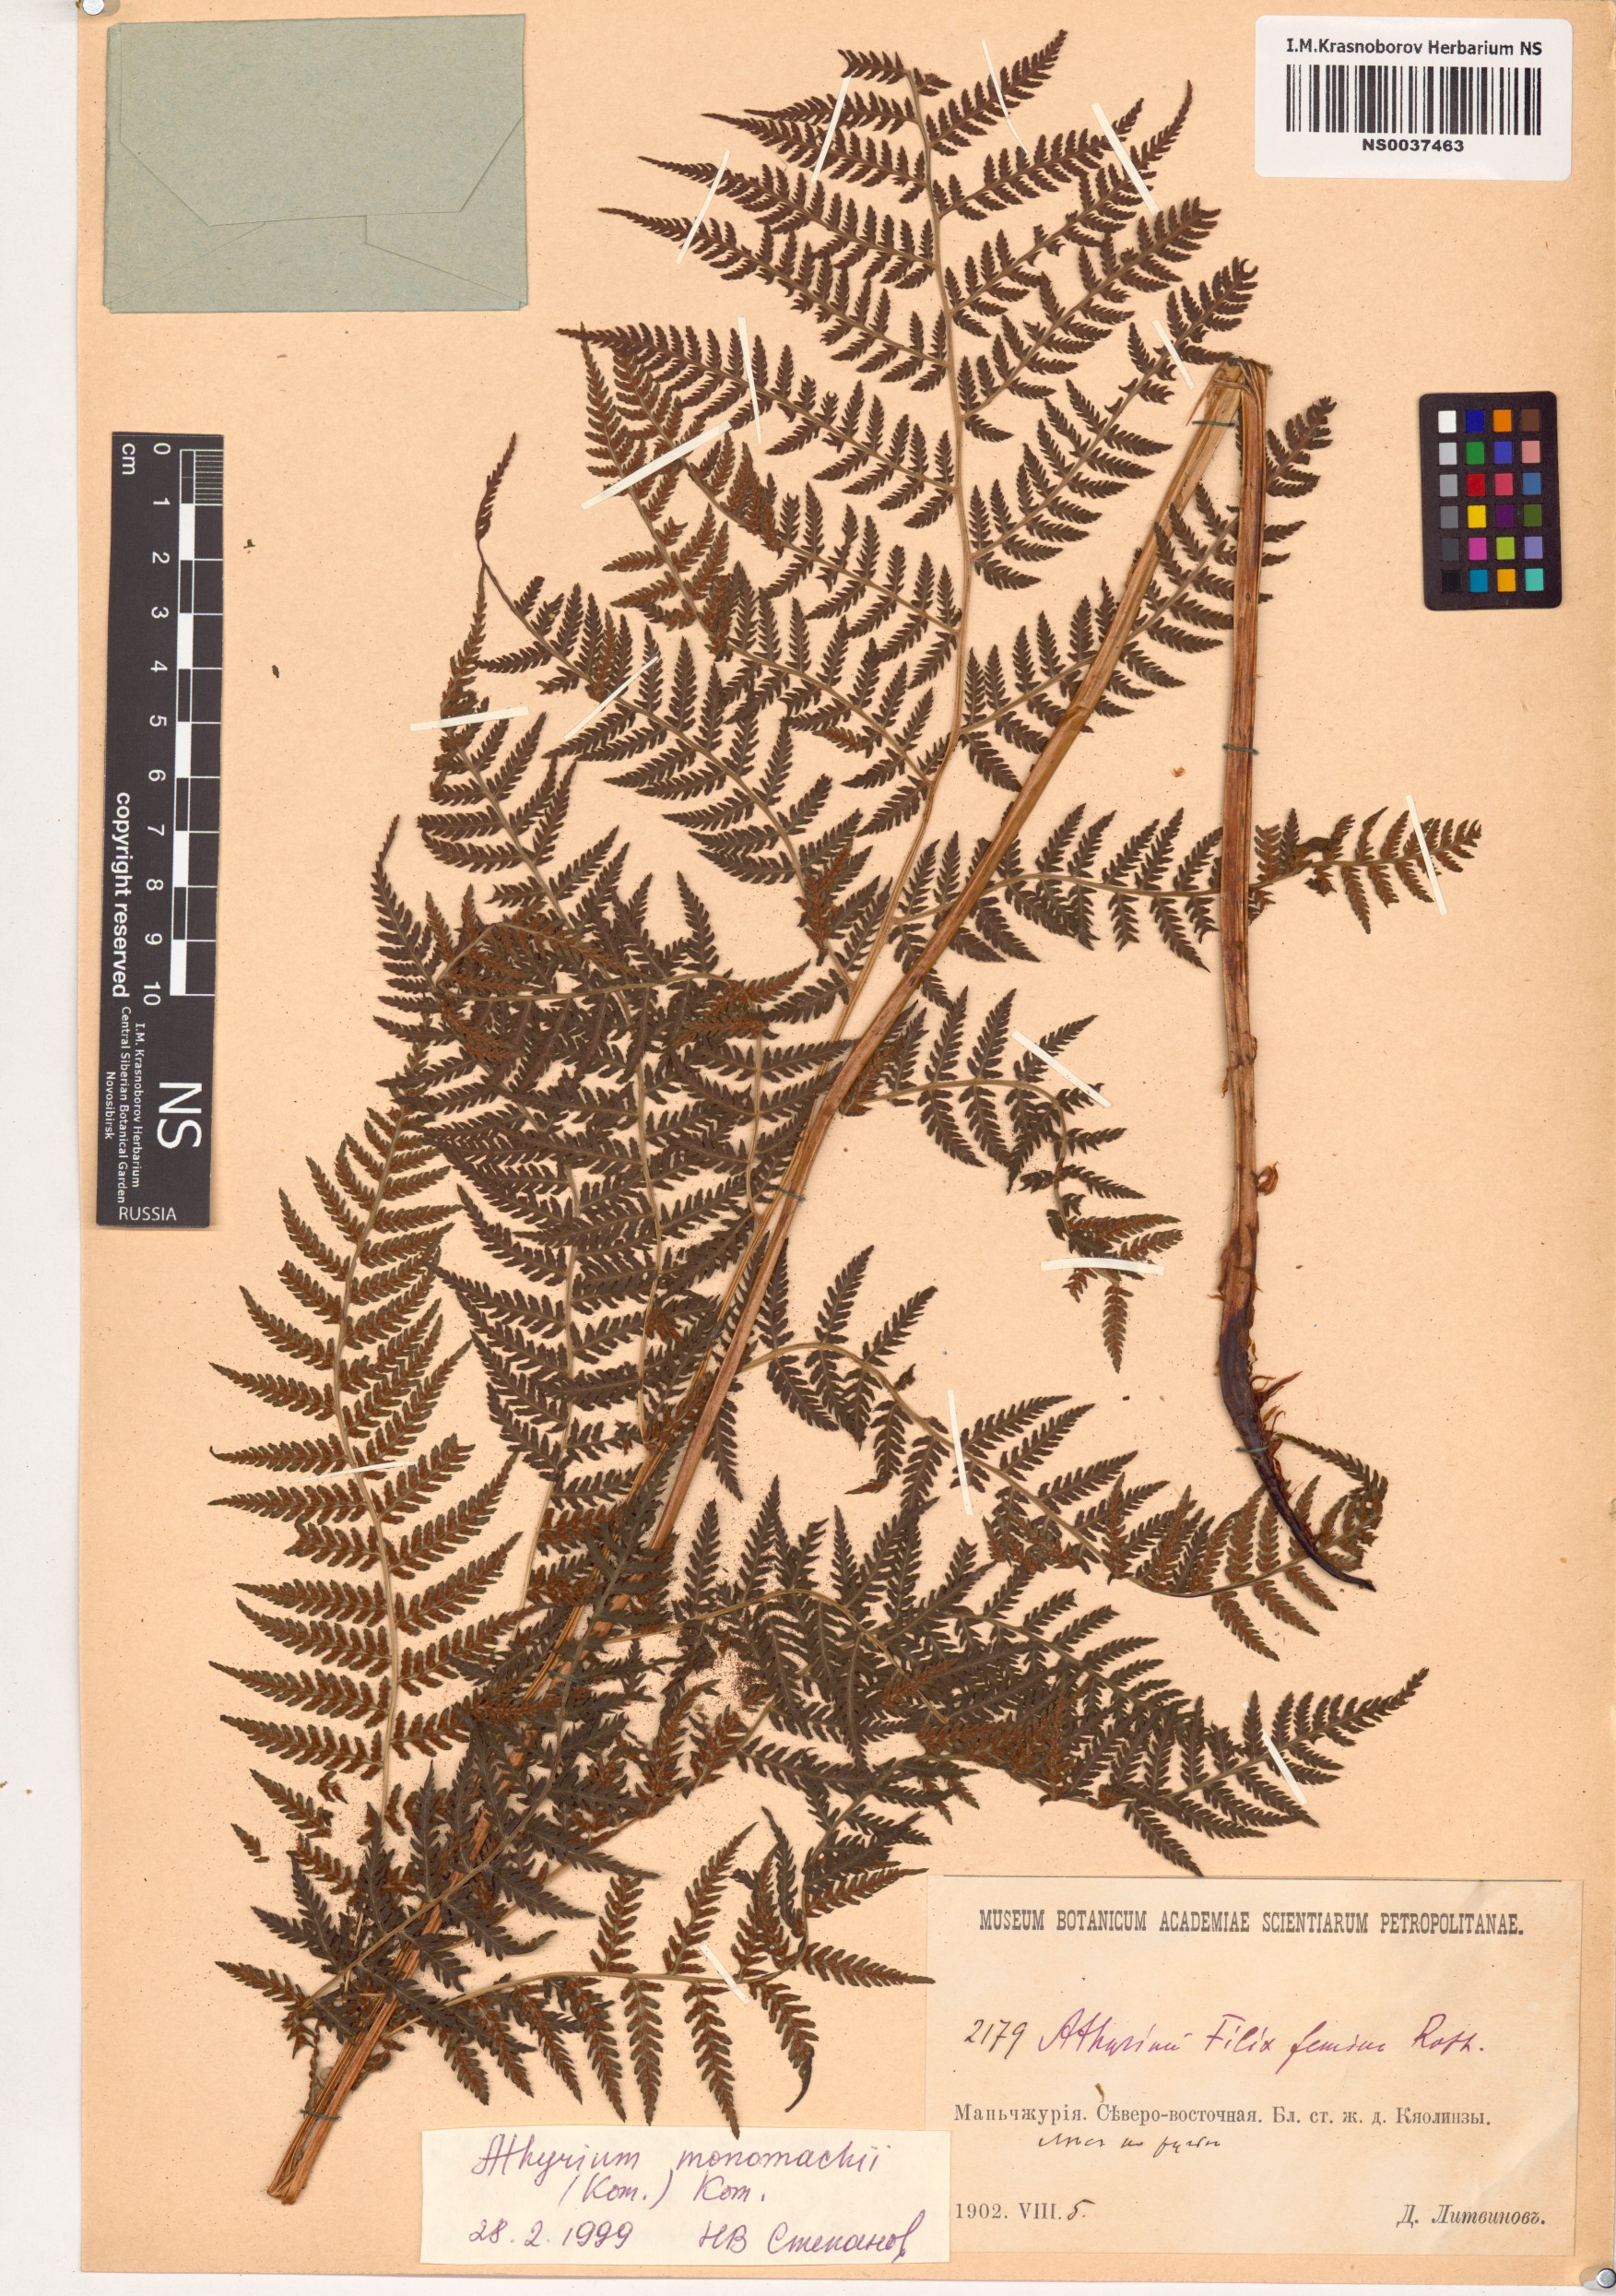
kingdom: Plantae
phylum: Tracheophyta
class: Polypodiopsida
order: Polypodiales
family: Athyriaceae
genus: Athyrium
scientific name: Athyrium monomachii
